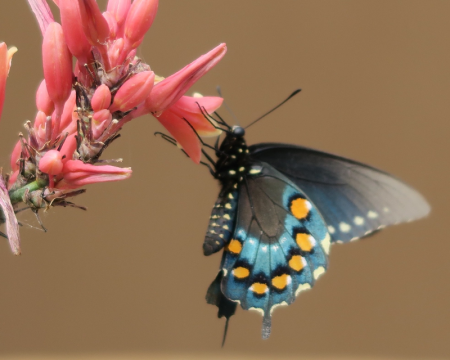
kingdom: Animalia
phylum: Arthropoda
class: Insecta
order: Lepidoptera
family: Papilionidae
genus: Battus
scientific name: Battus philenor
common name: Pipevine Swallowtail
